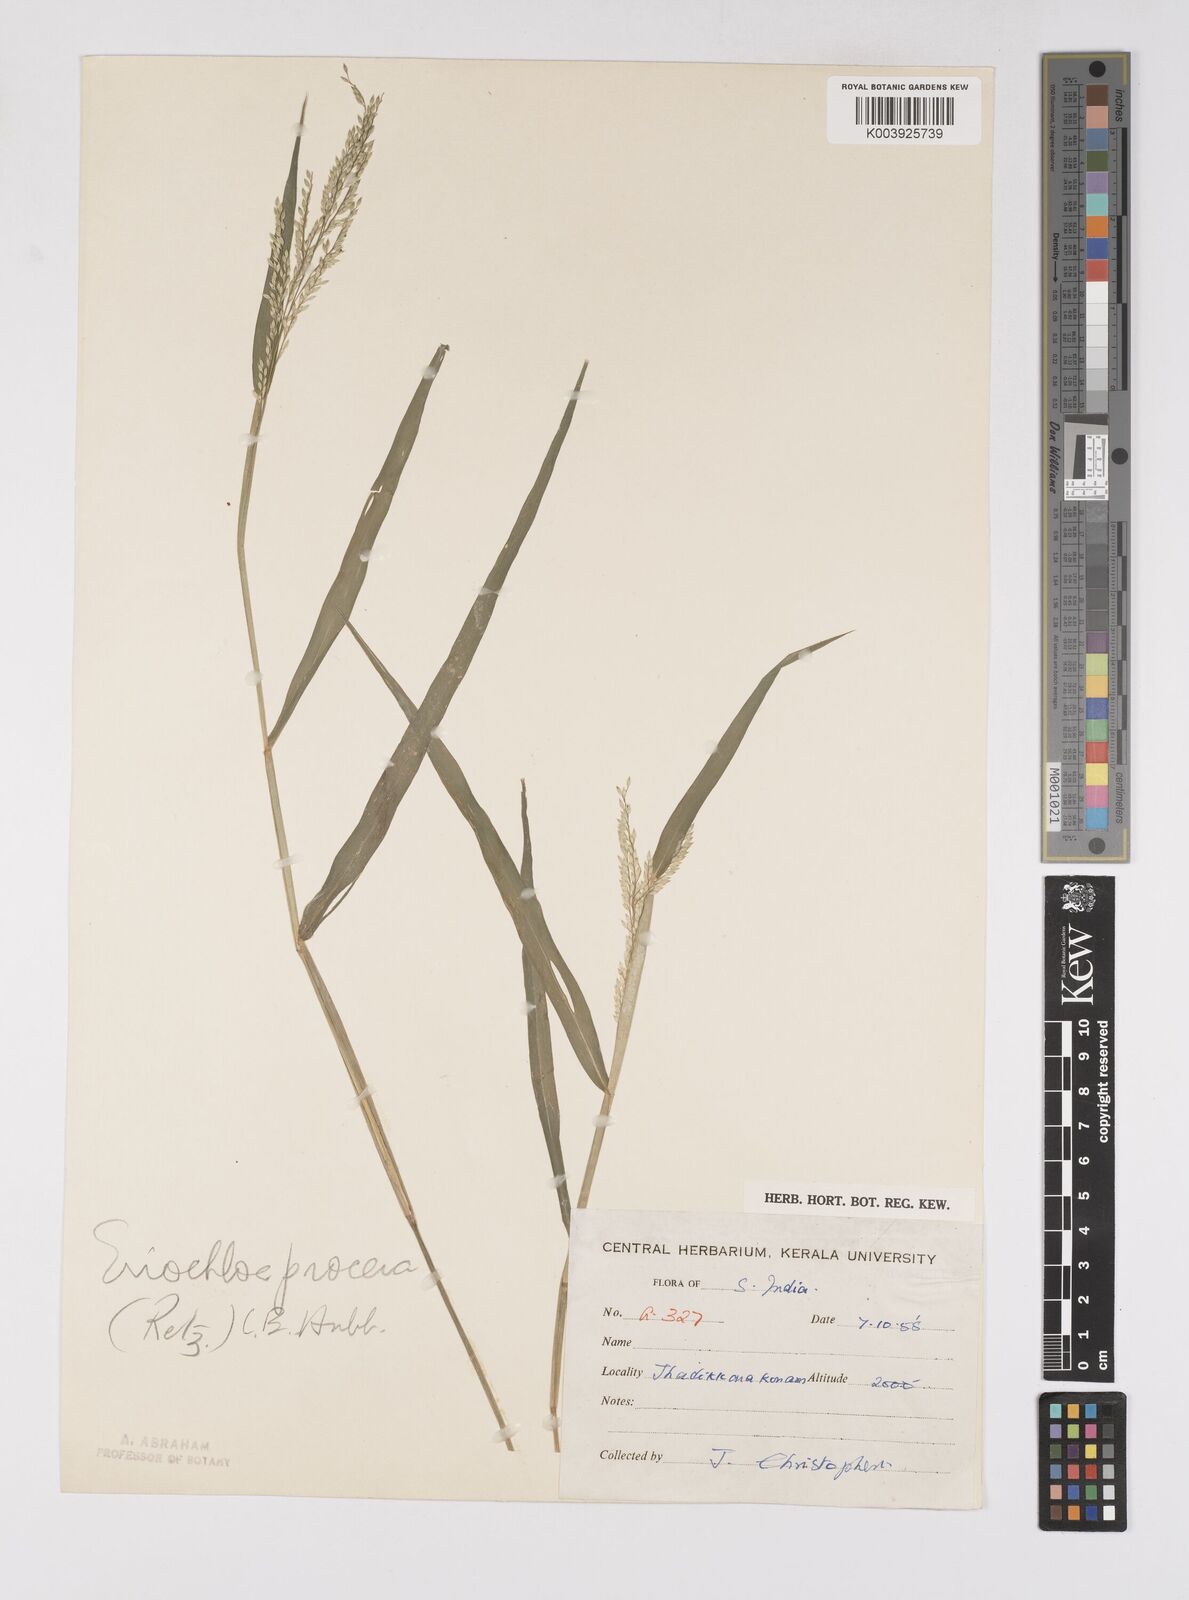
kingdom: Plantae
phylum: Tracheophyta
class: Liliopsida
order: Poales
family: Poaceae
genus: Eriochloa
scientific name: Eriochloa procera
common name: Spring grass
